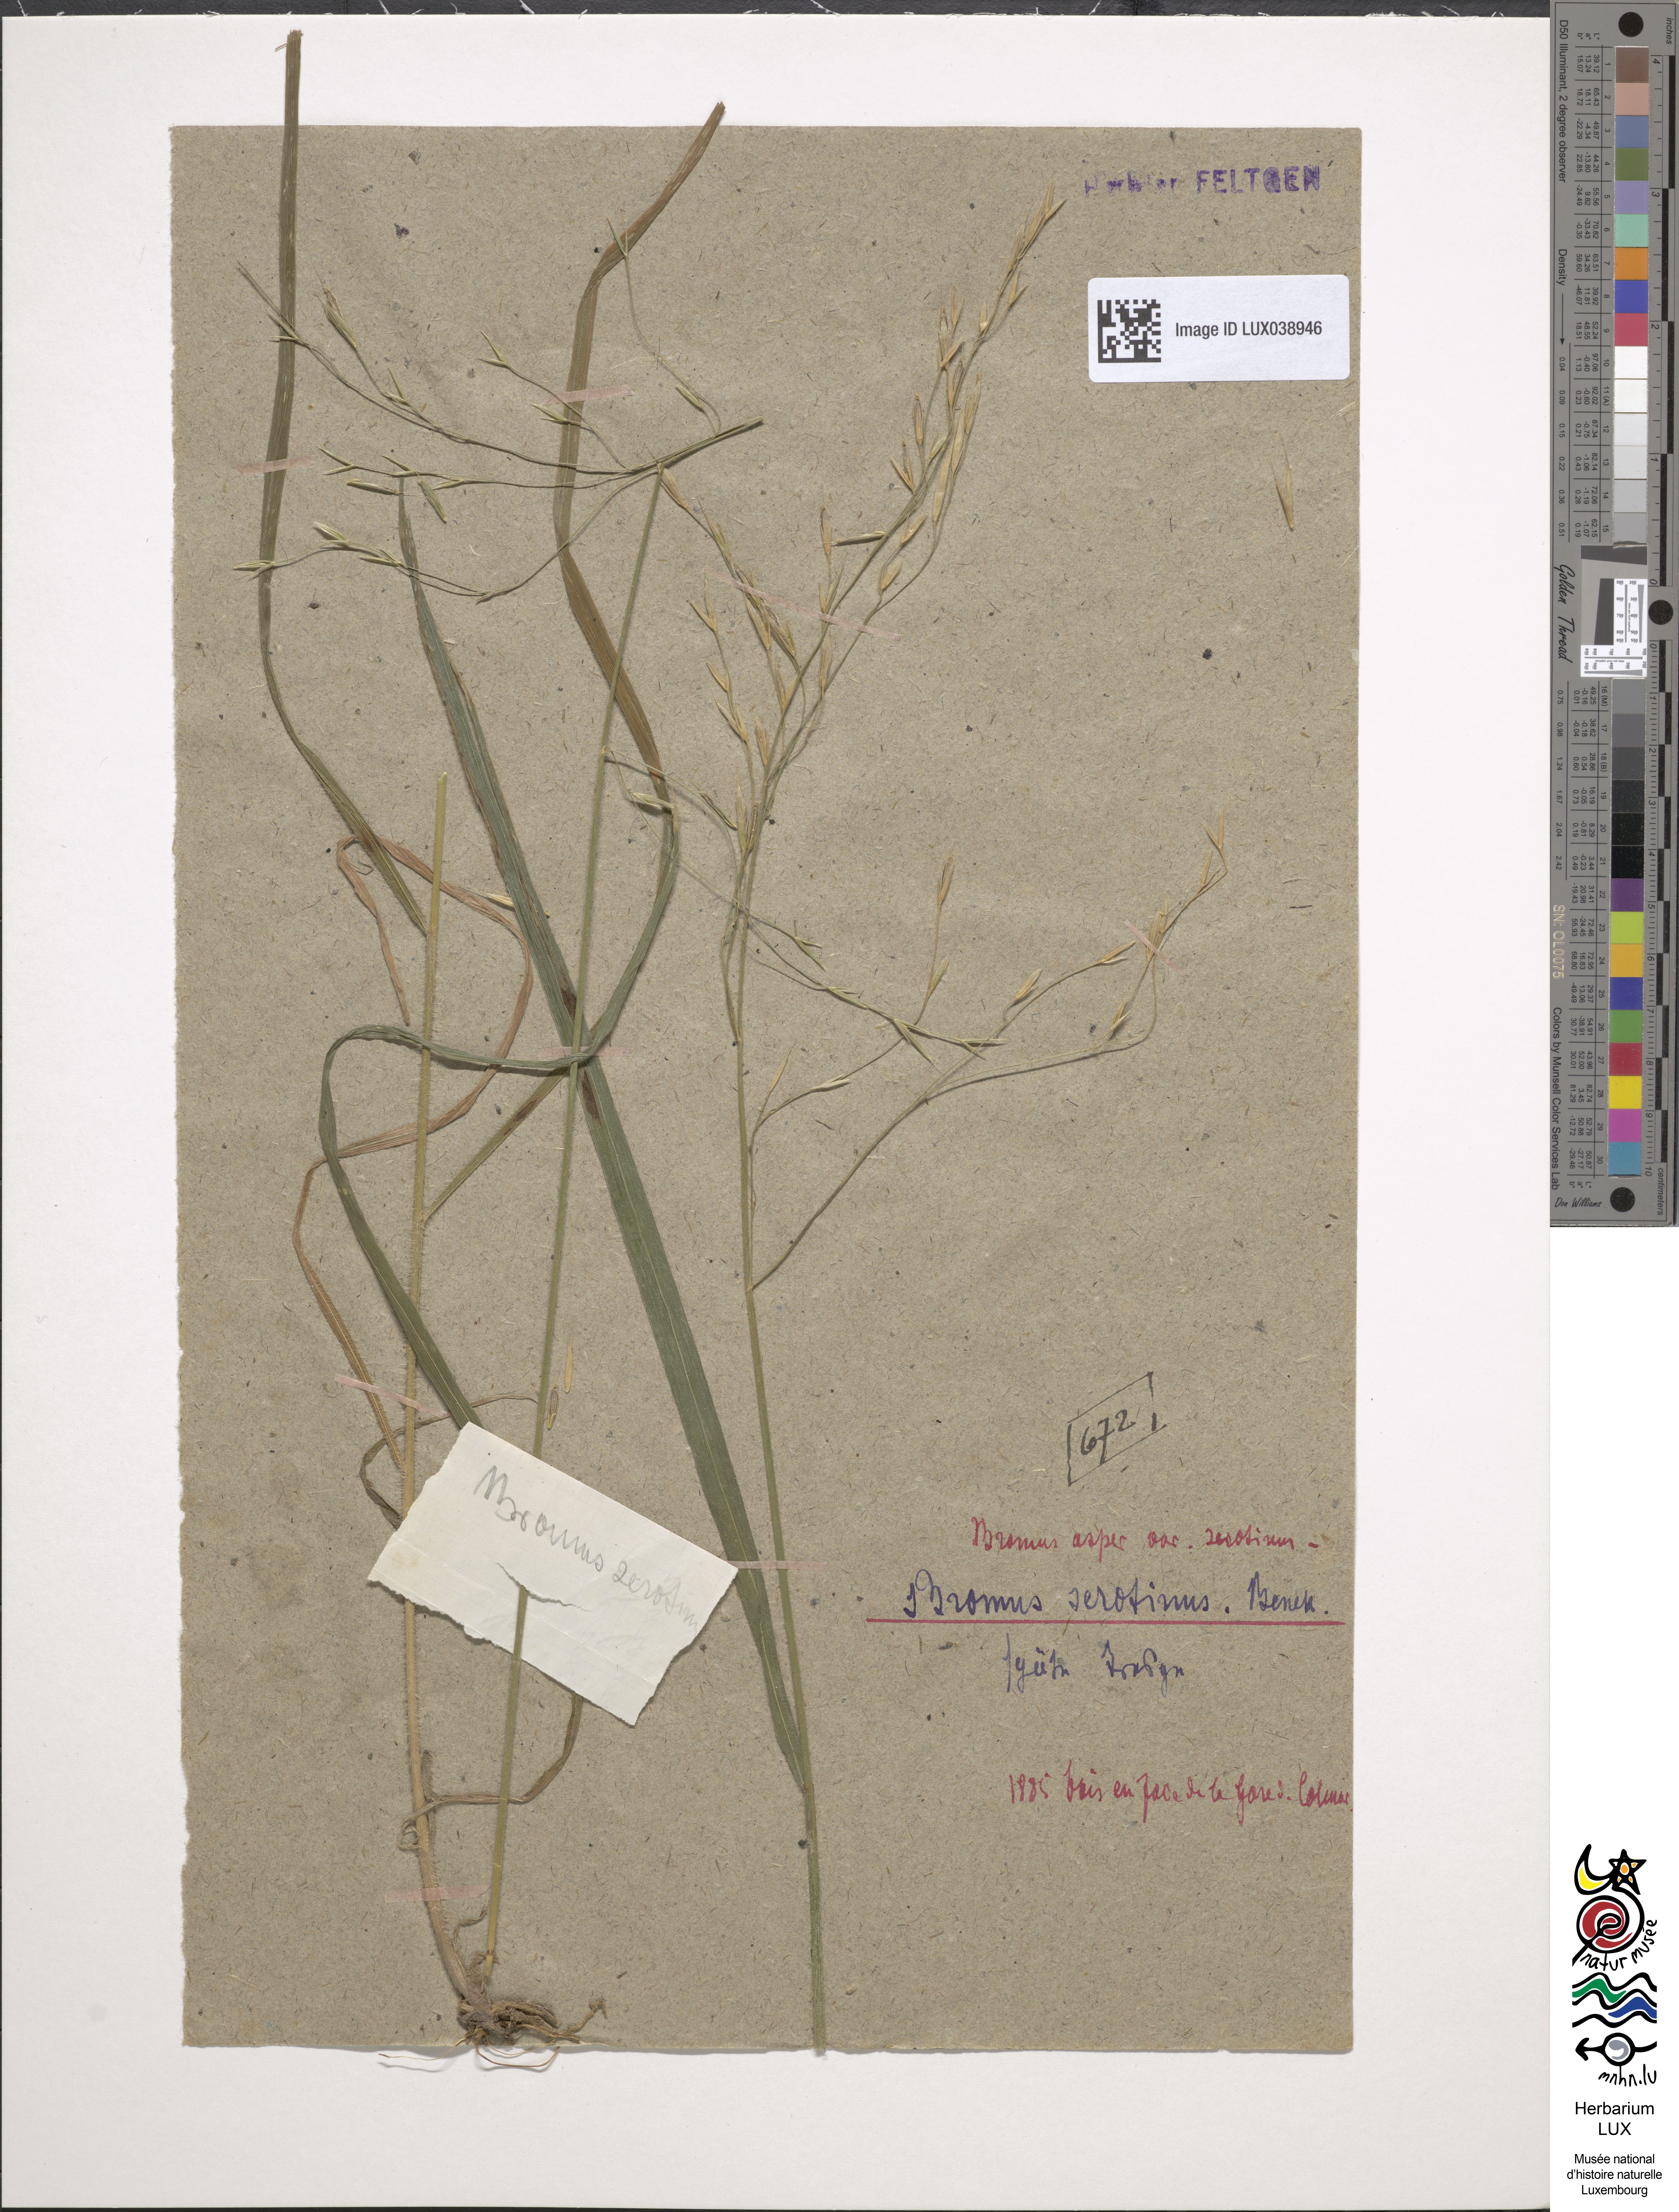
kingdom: Plantae
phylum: Tracheophyta
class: Liliopsida
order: Poales
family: Poaceae
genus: Bromus
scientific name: Bromus ramosus
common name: Hairy brome
